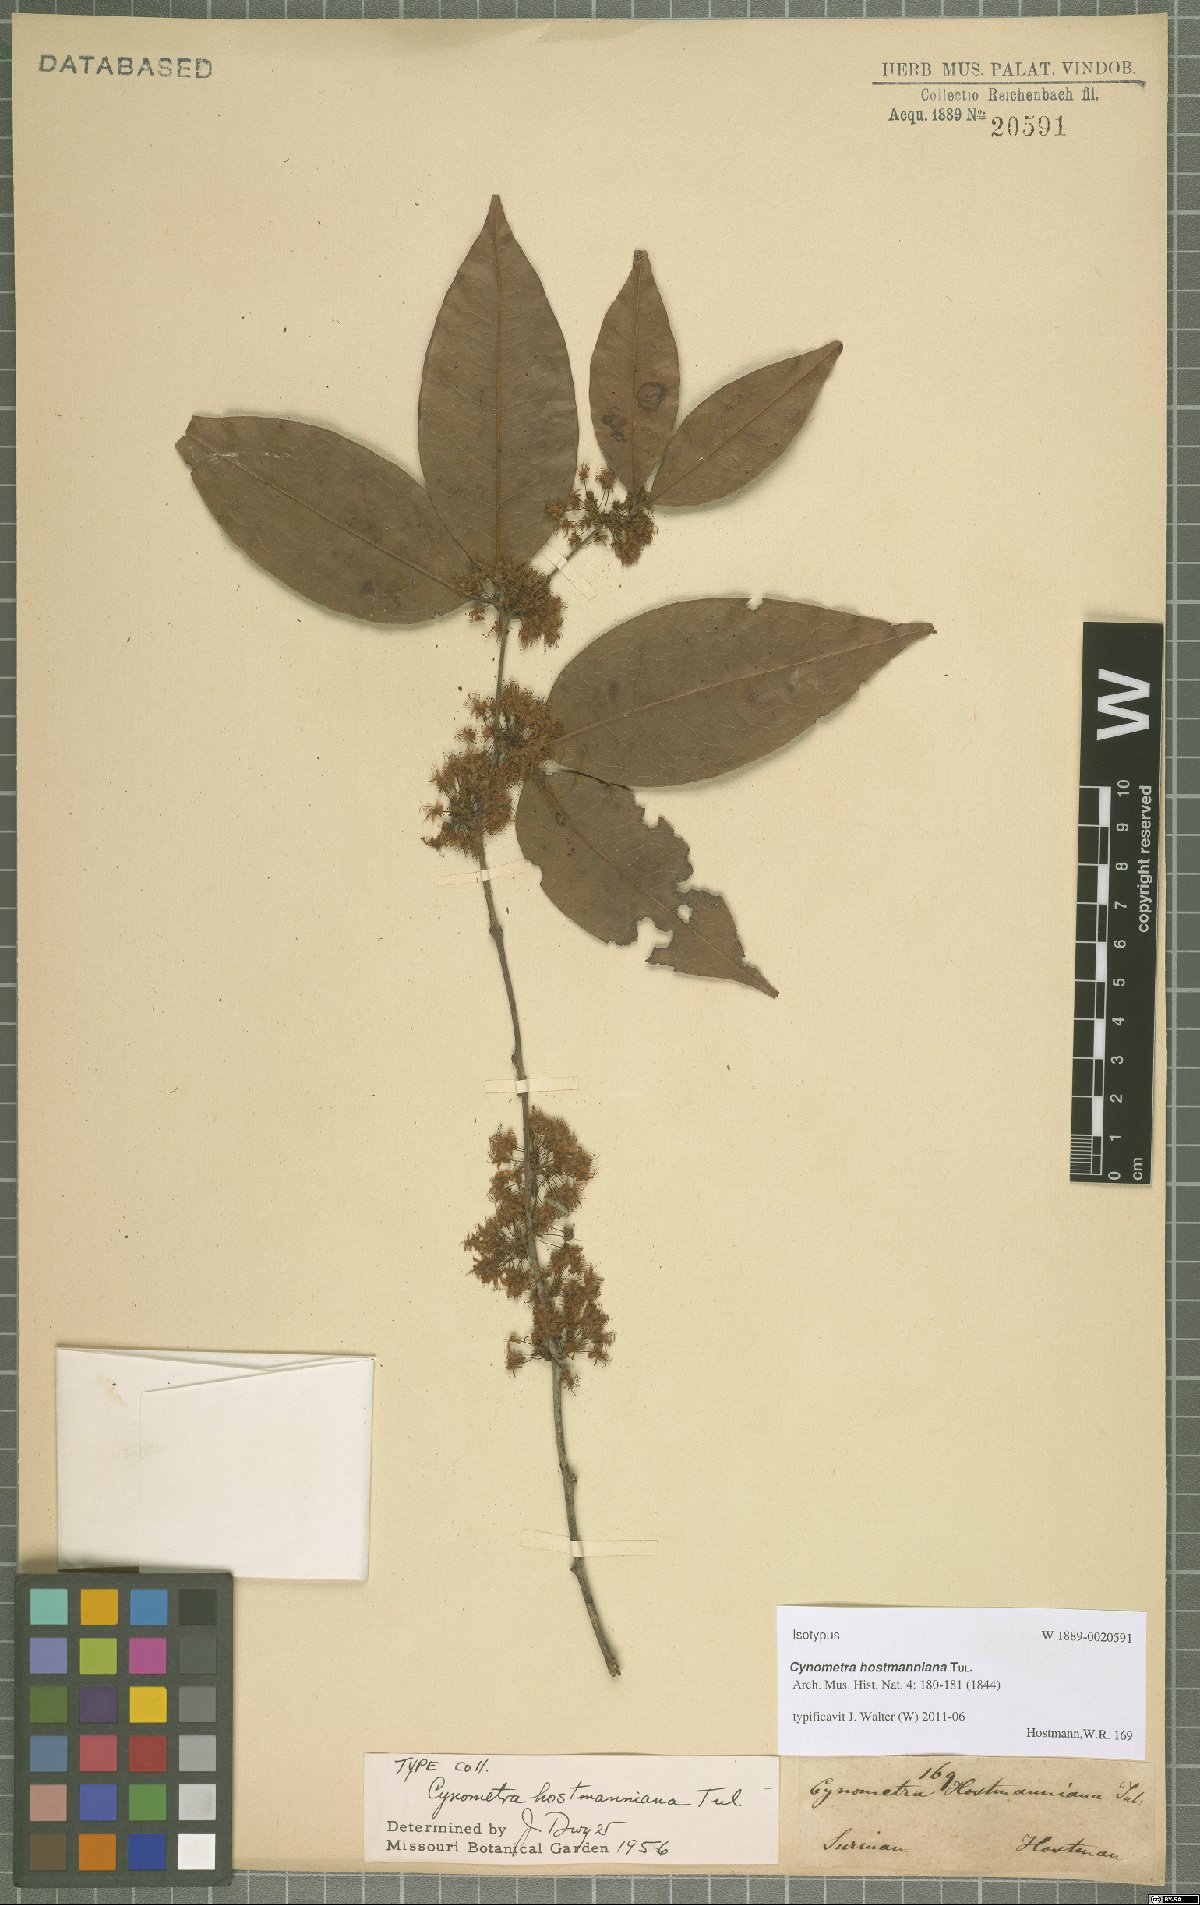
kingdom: Plantae
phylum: Tracheophyta
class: Magnoliopsida
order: Fabales
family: Fabaceae
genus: Cynometra
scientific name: Cynometra hostmanniana
